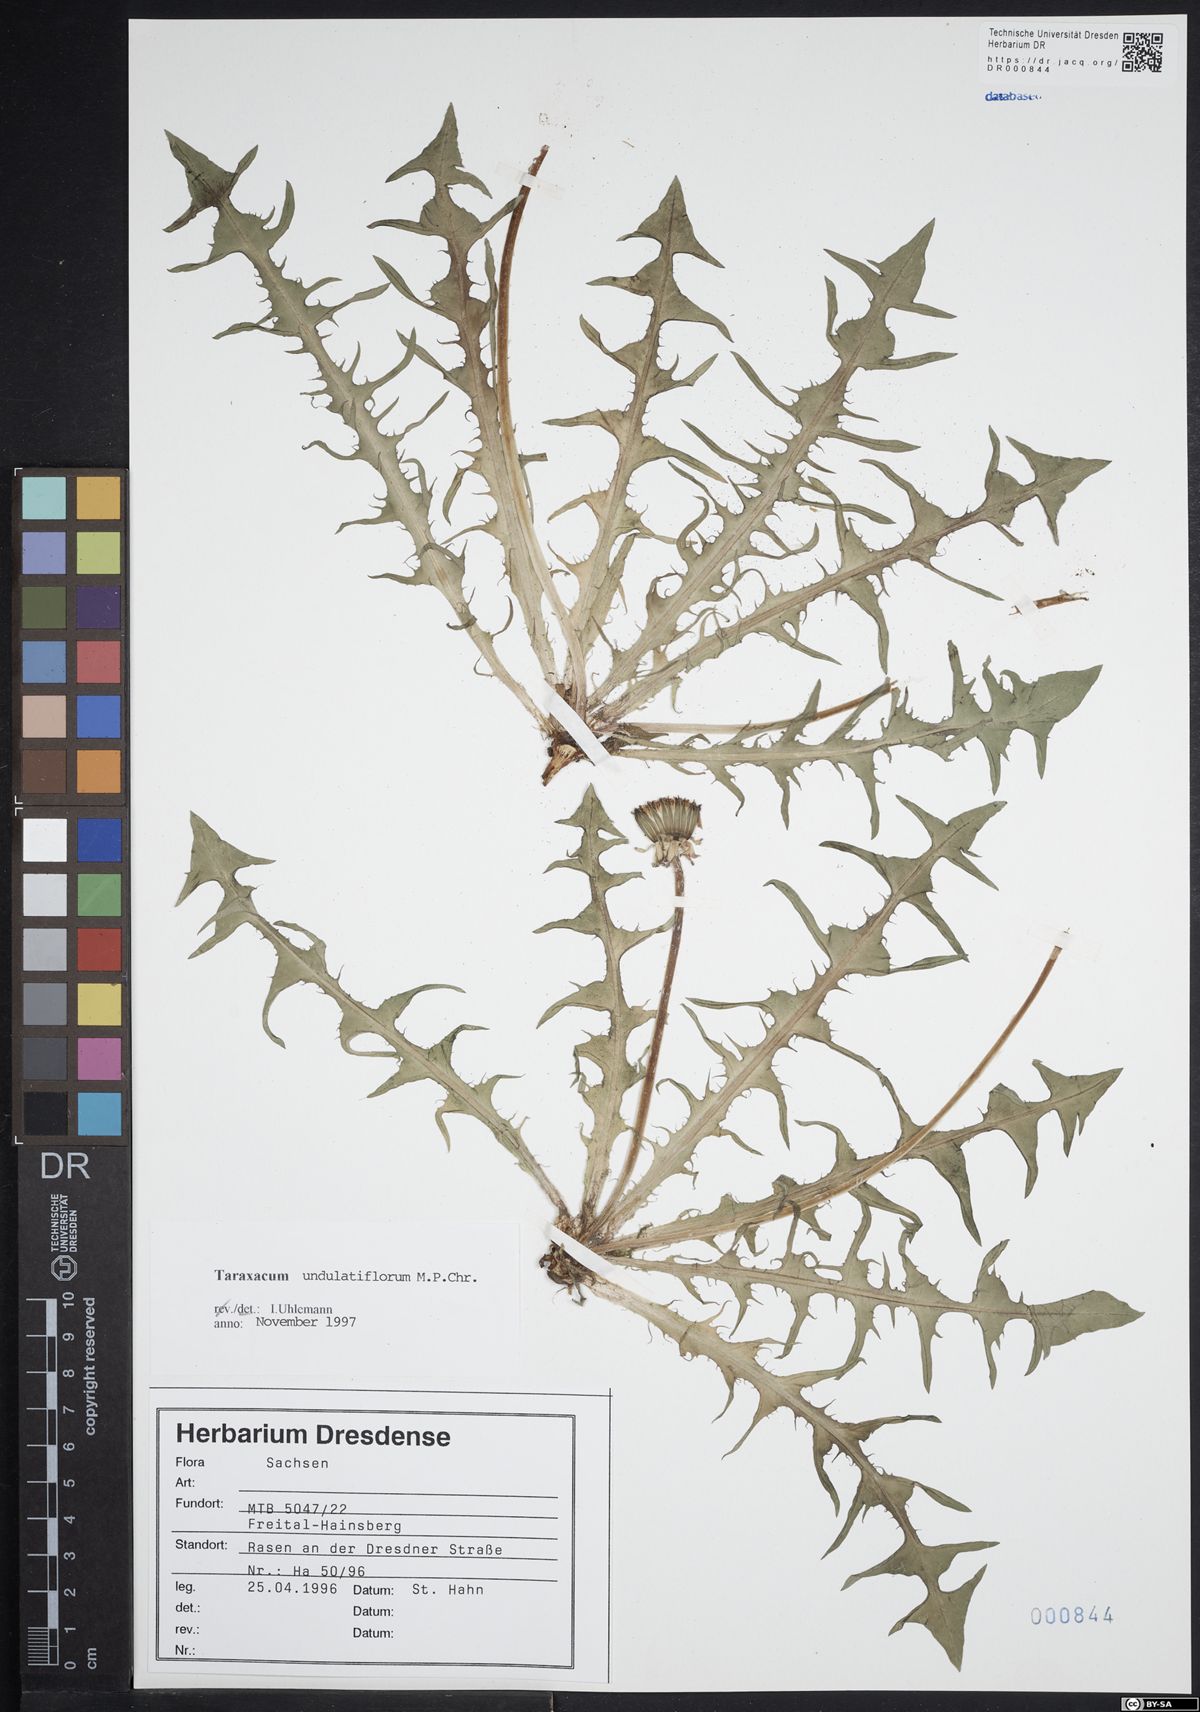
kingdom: Plantae
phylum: Tracheophyta
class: Magnoliopsida
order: Asterales
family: Asteraceae
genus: Taraxacum
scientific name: Taraxacum undulatiflorum
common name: Dull-leaved dandelion
